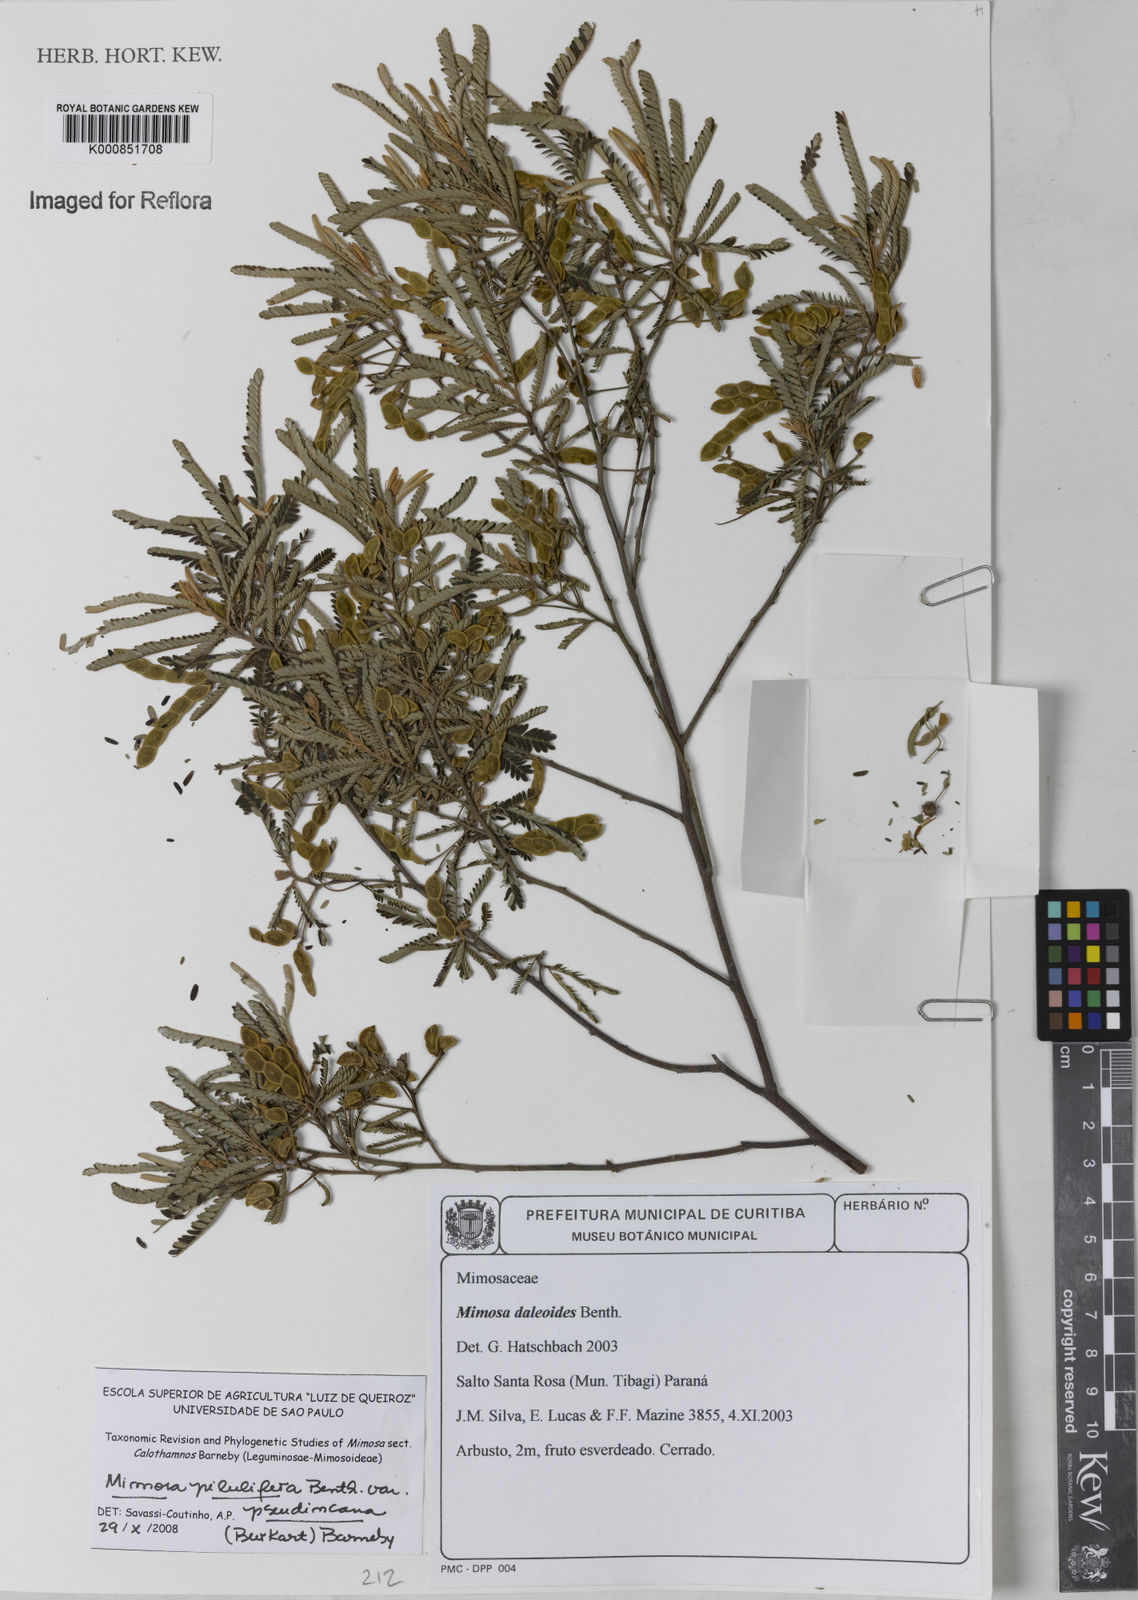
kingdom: Plantae
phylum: Tracheophyta
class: Magnoliopsida
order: Fabales
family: Fabaceae
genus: Mimosa
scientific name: Mimosa pilulifera
